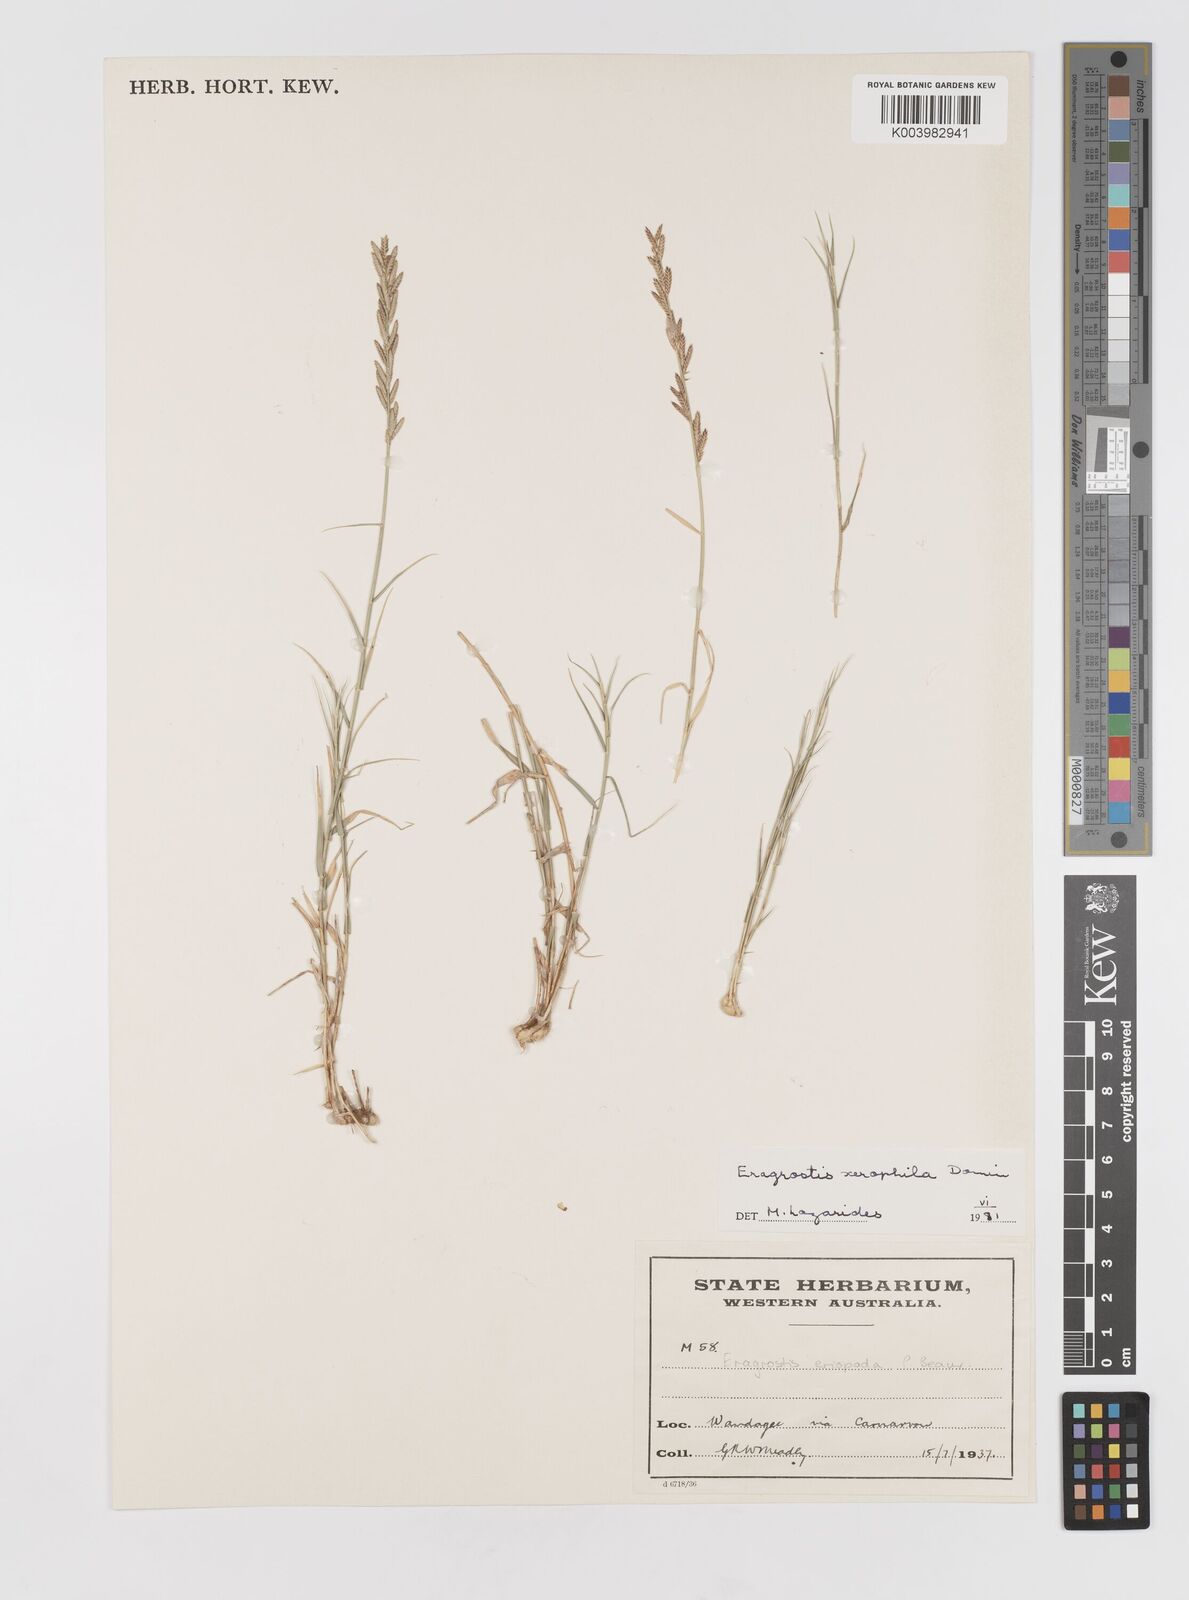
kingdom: Plantae
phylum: Tracheophyta
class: Liliopsida
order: Poales
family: Poaceae
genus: Eragrostis
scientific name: Eragrostis xerophila
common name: Wire wandarrie grass
